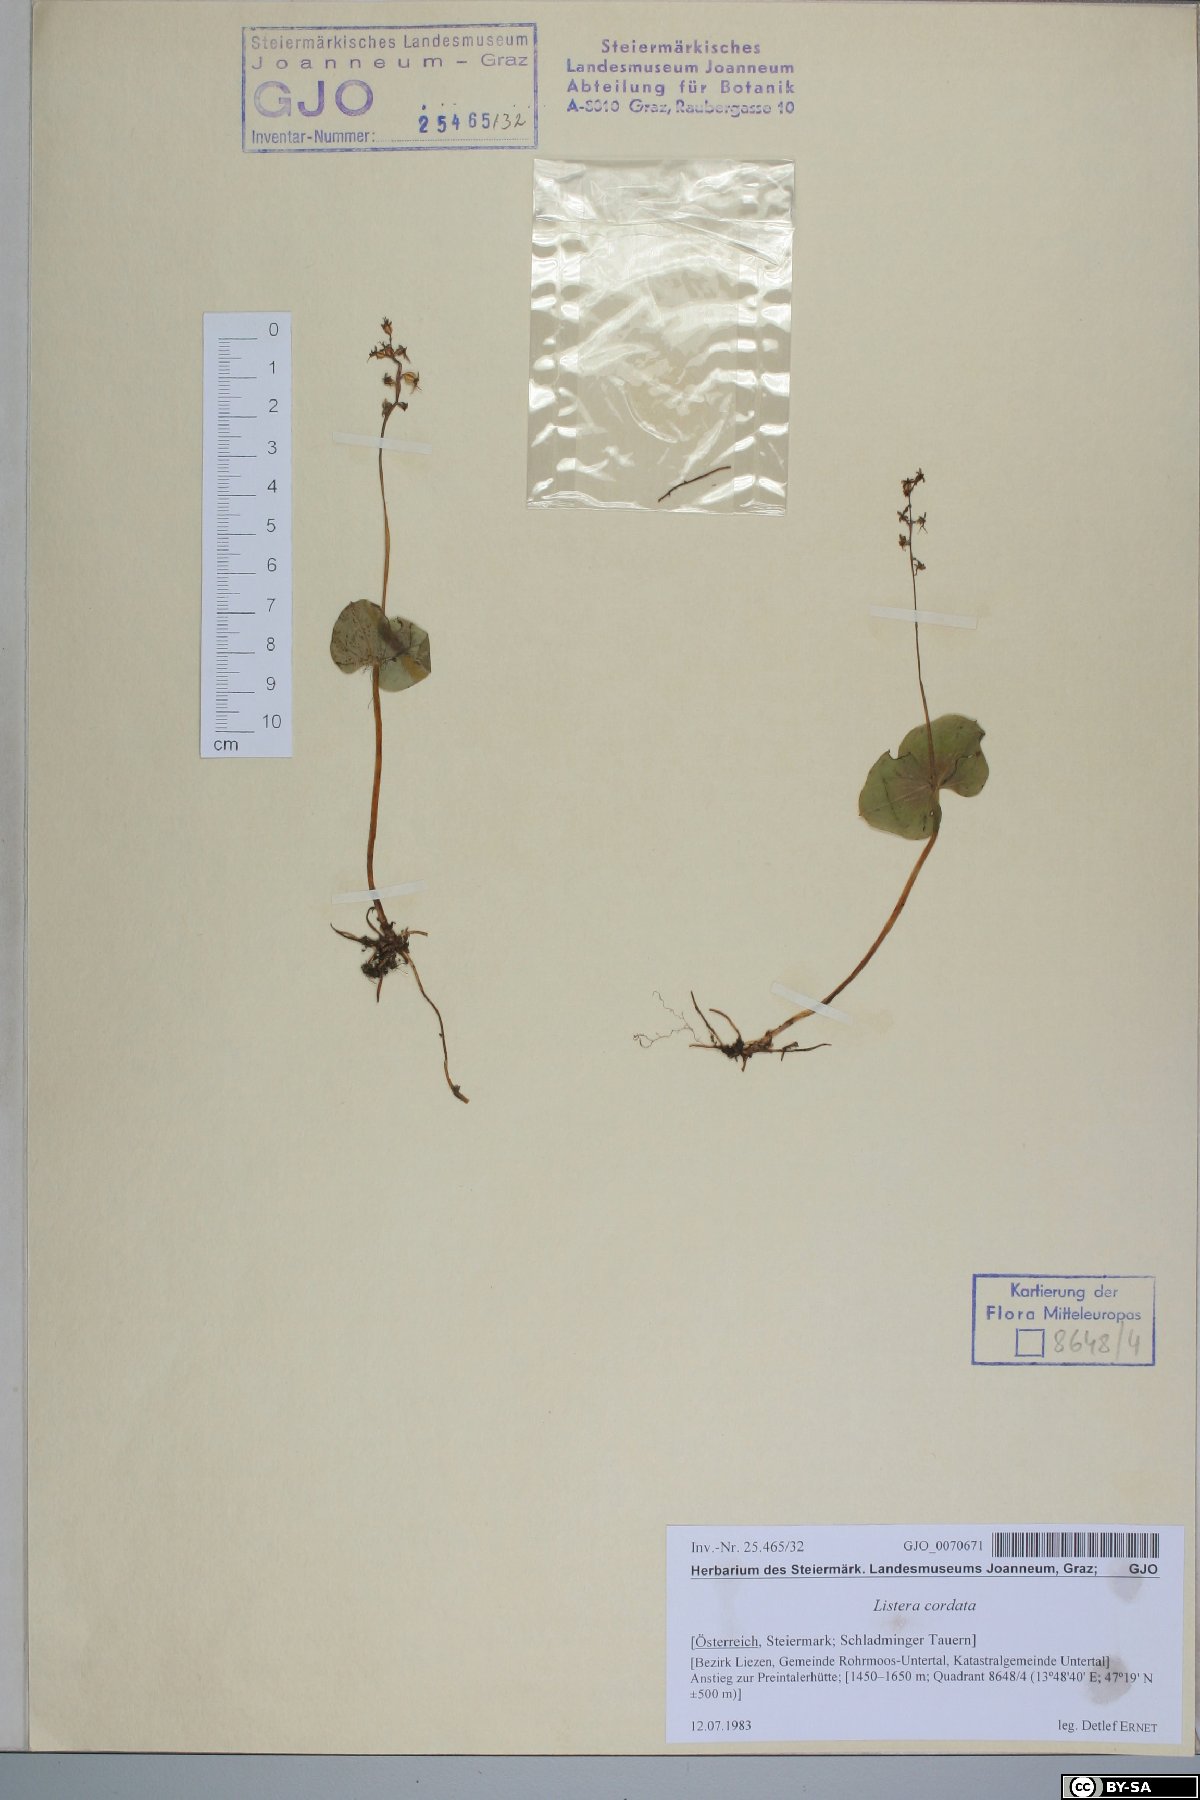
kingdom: Plantae
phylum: Tracheophyta
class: Liliopsida
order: Asparagales
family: Orchidaceae
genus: Neottia
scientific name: Neottia cordata
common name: Lesser twayblade
